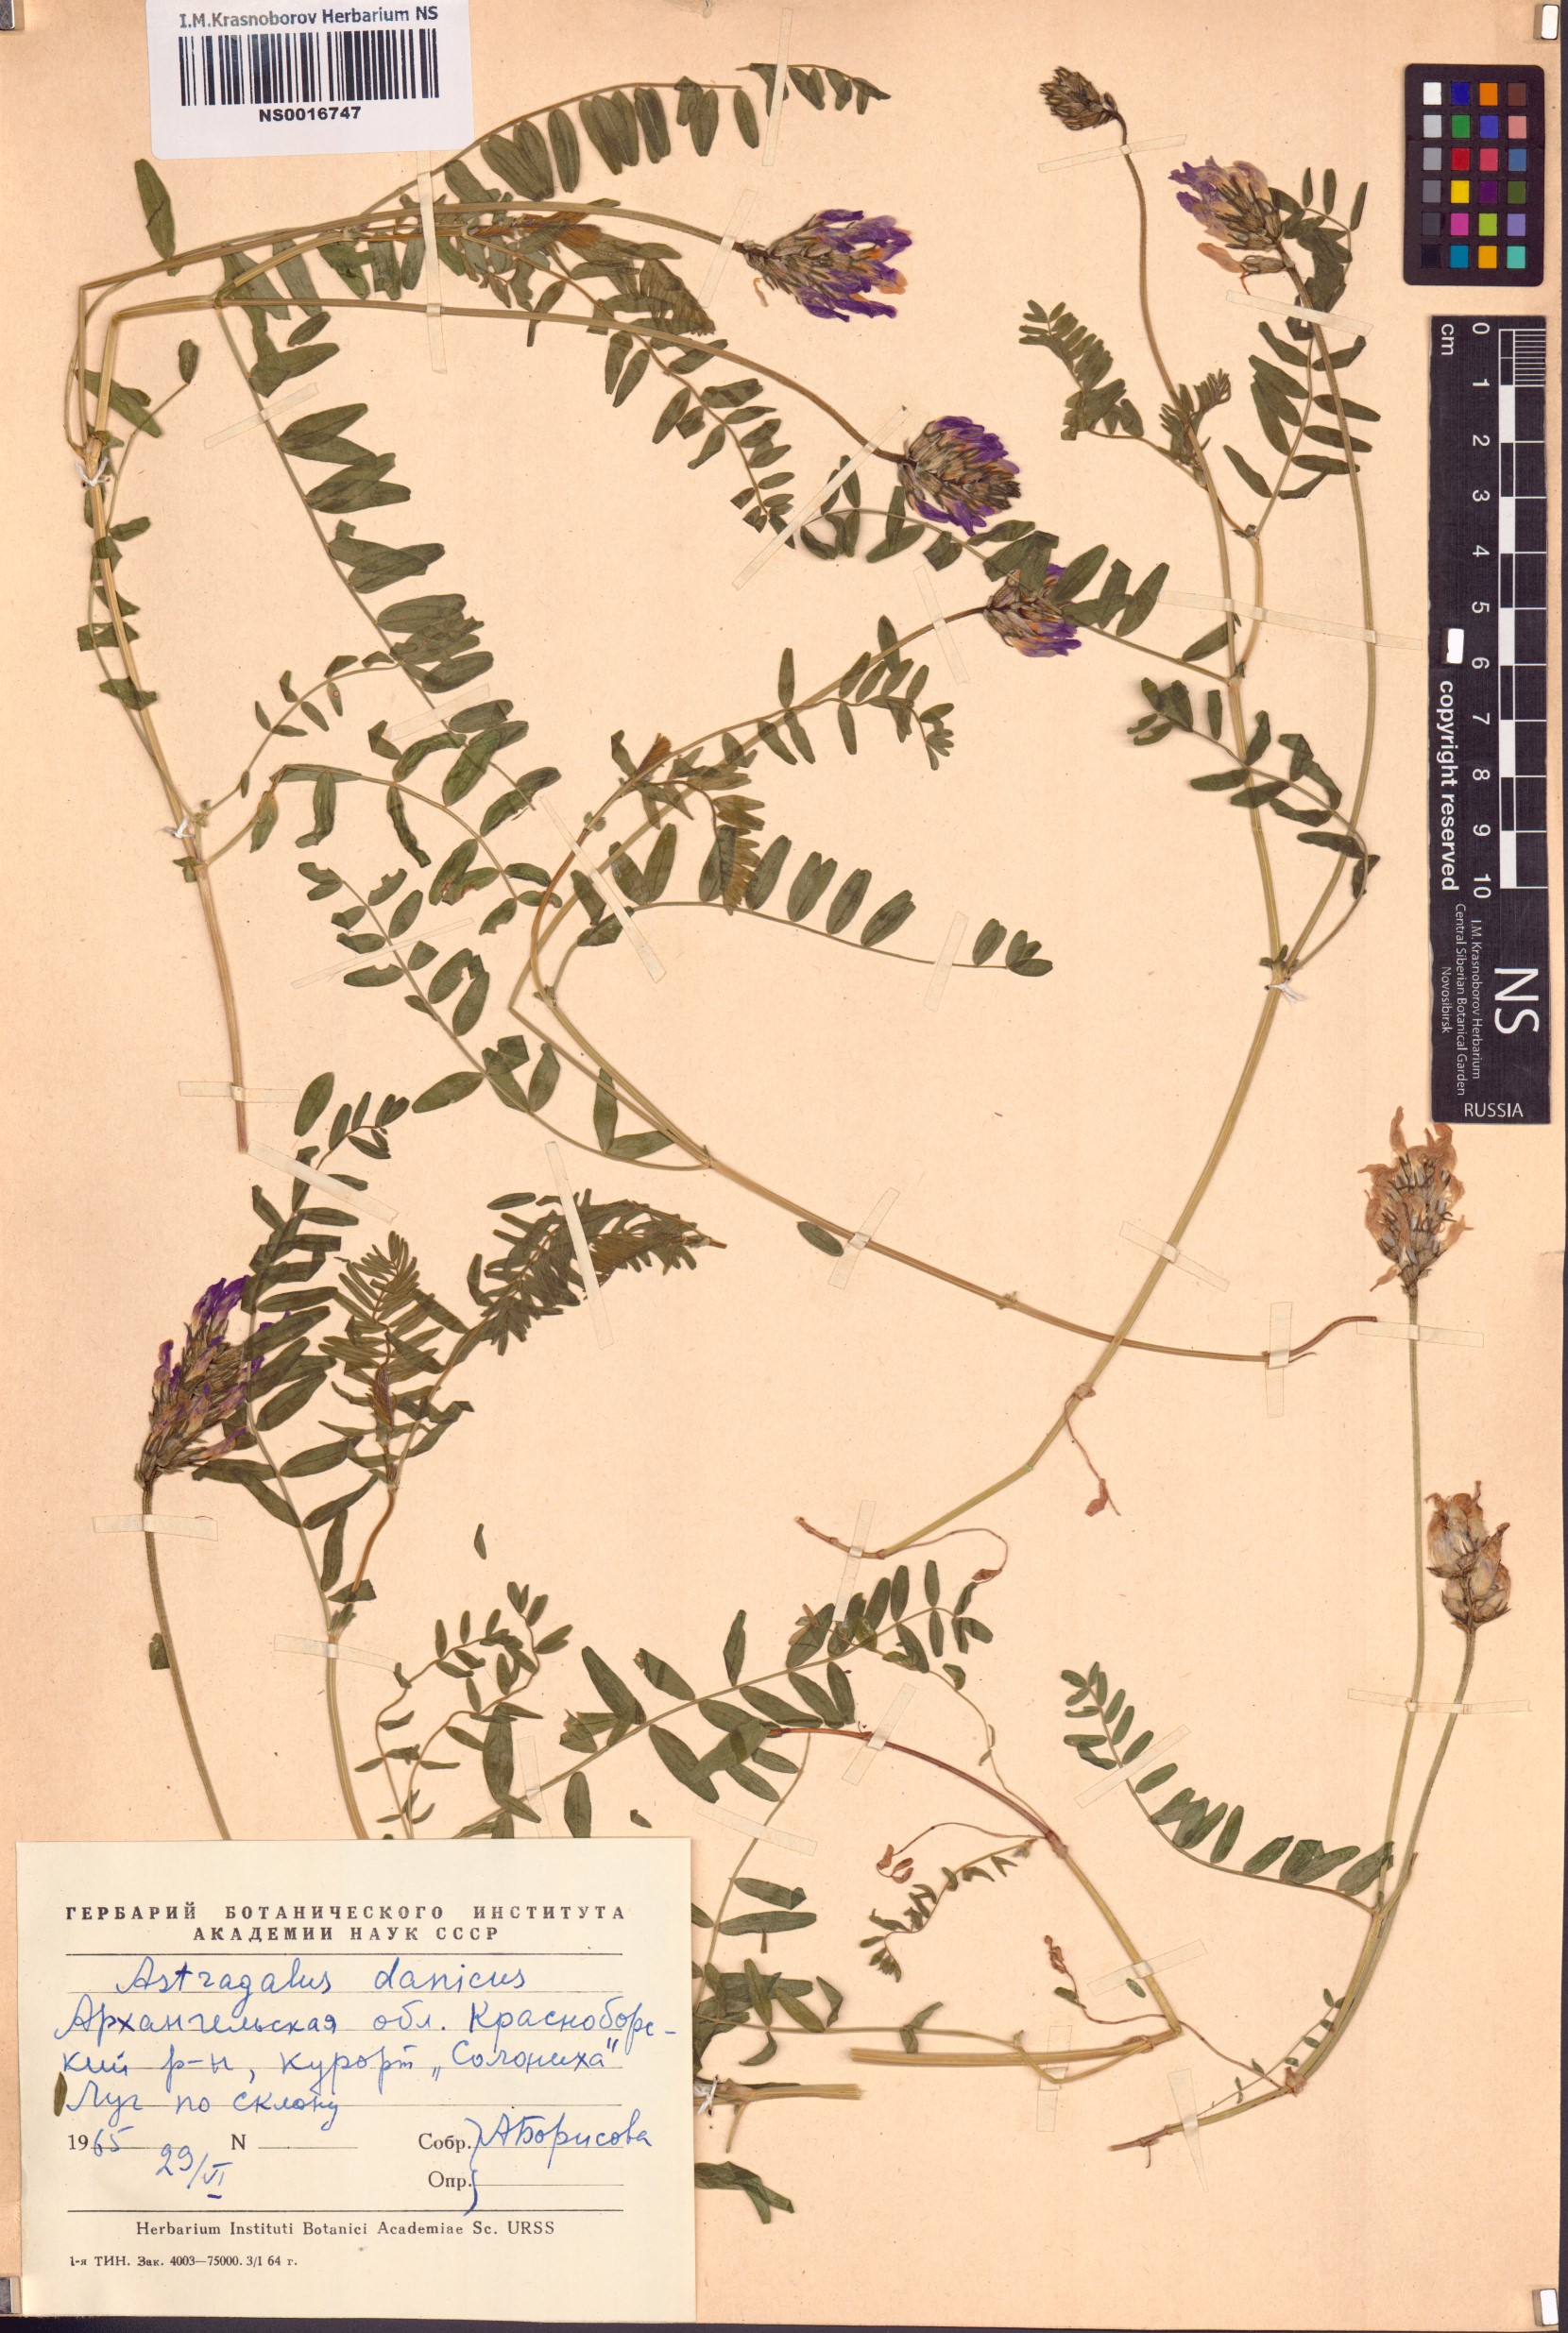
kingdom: Plantae
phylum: Tracheophyta
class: Magnoliopsida
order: Fabales
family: Fabaceae
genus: Astragalus
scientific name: Astragalus danicus
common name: Purple milk-vetch
